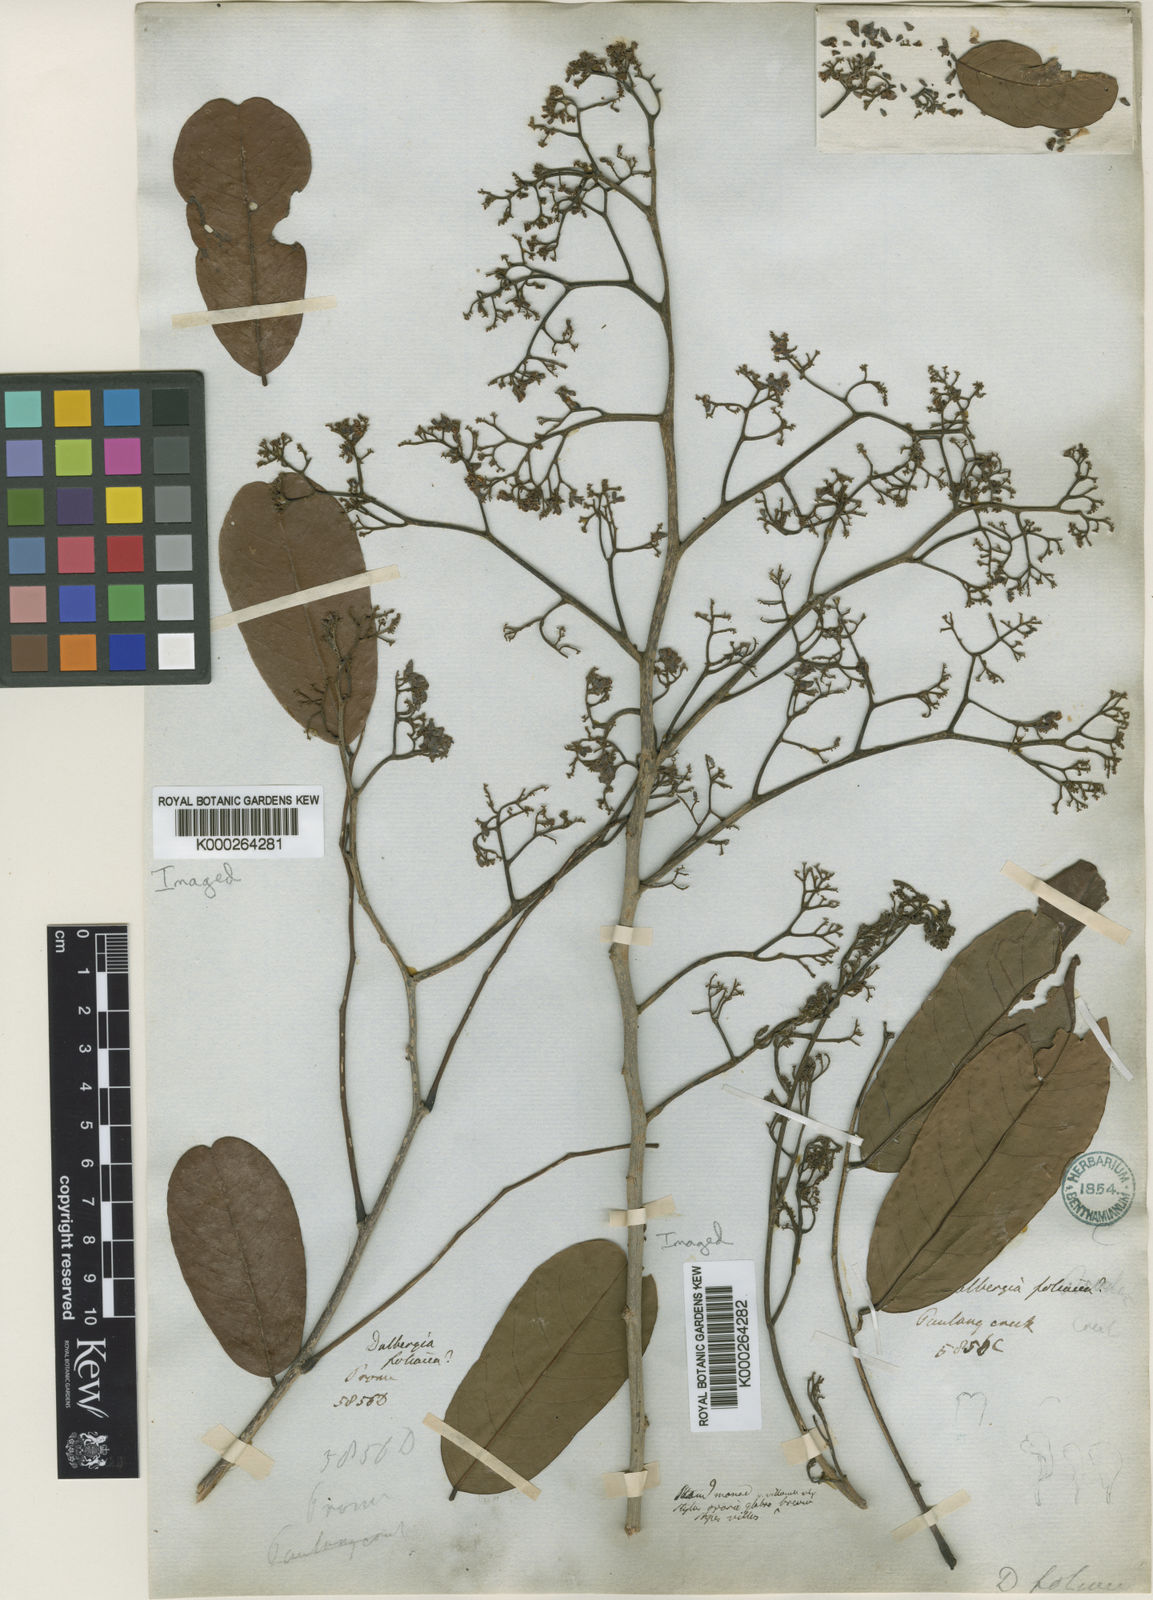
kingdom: Plantae
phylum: Tracheophyta
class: Magnoliopsida
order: Fabales
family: Fabaceae
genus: Dalbergia
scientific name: Dalbergia
